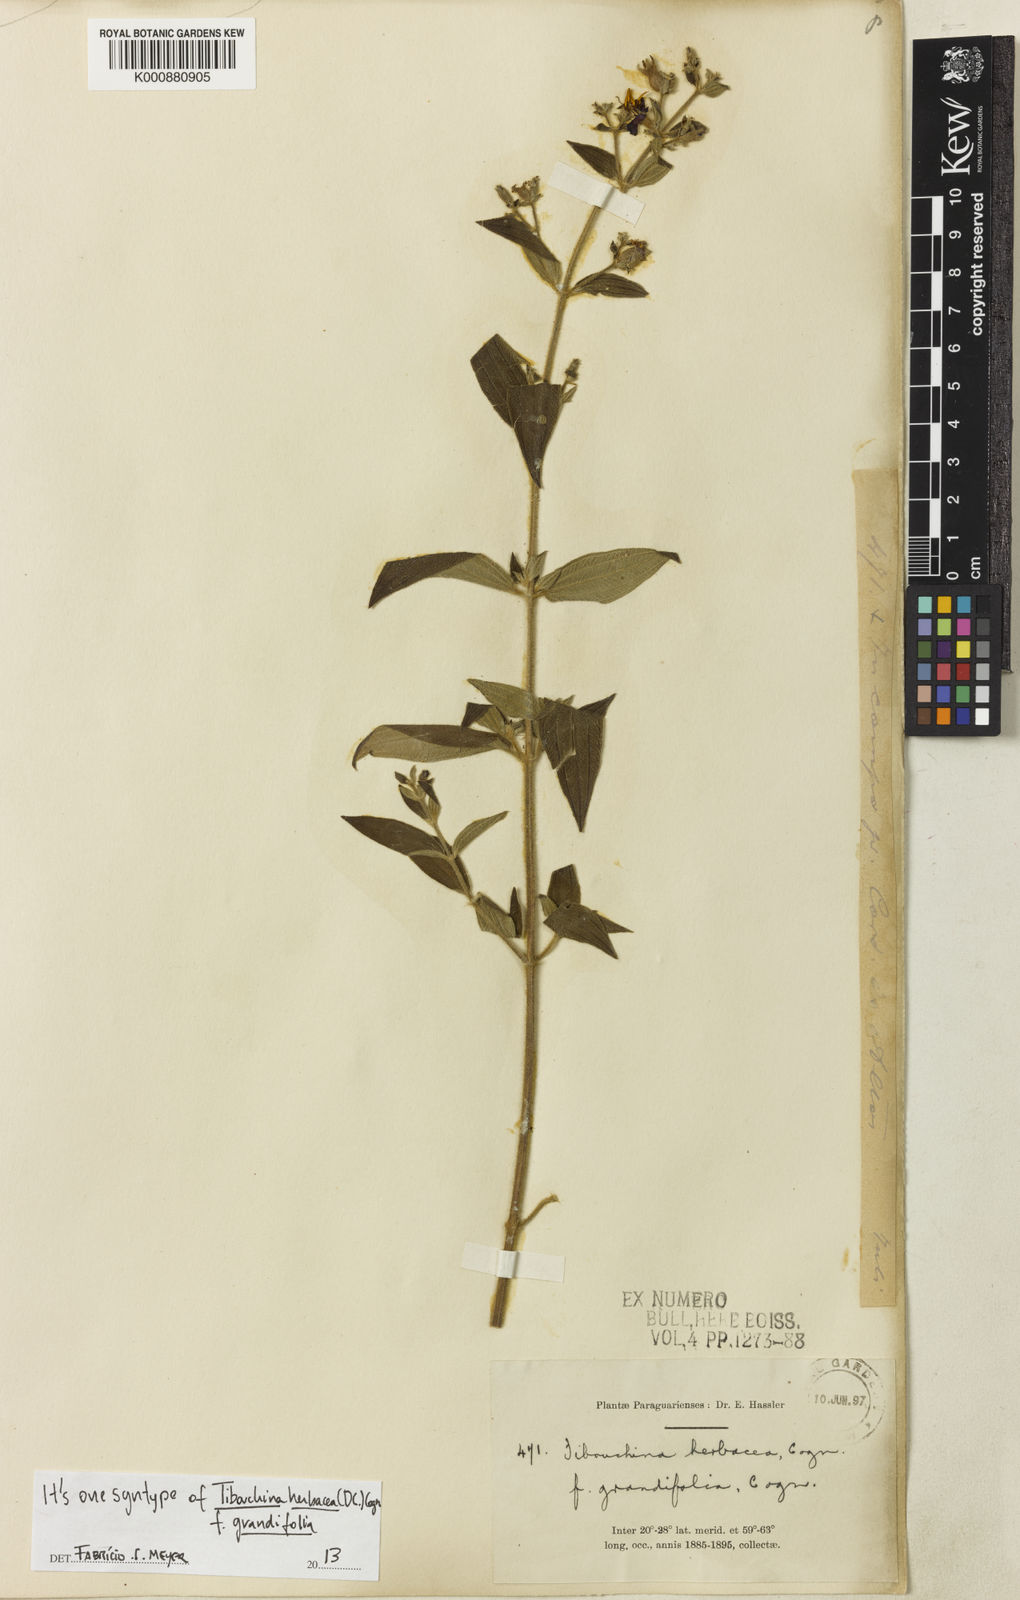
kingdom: Plantae
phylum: Tracheophyta
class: Magnoliopsida
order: Myrtales
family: Melastomataceae
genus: Chaetogastra
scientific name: Chaetogastra herbacea
